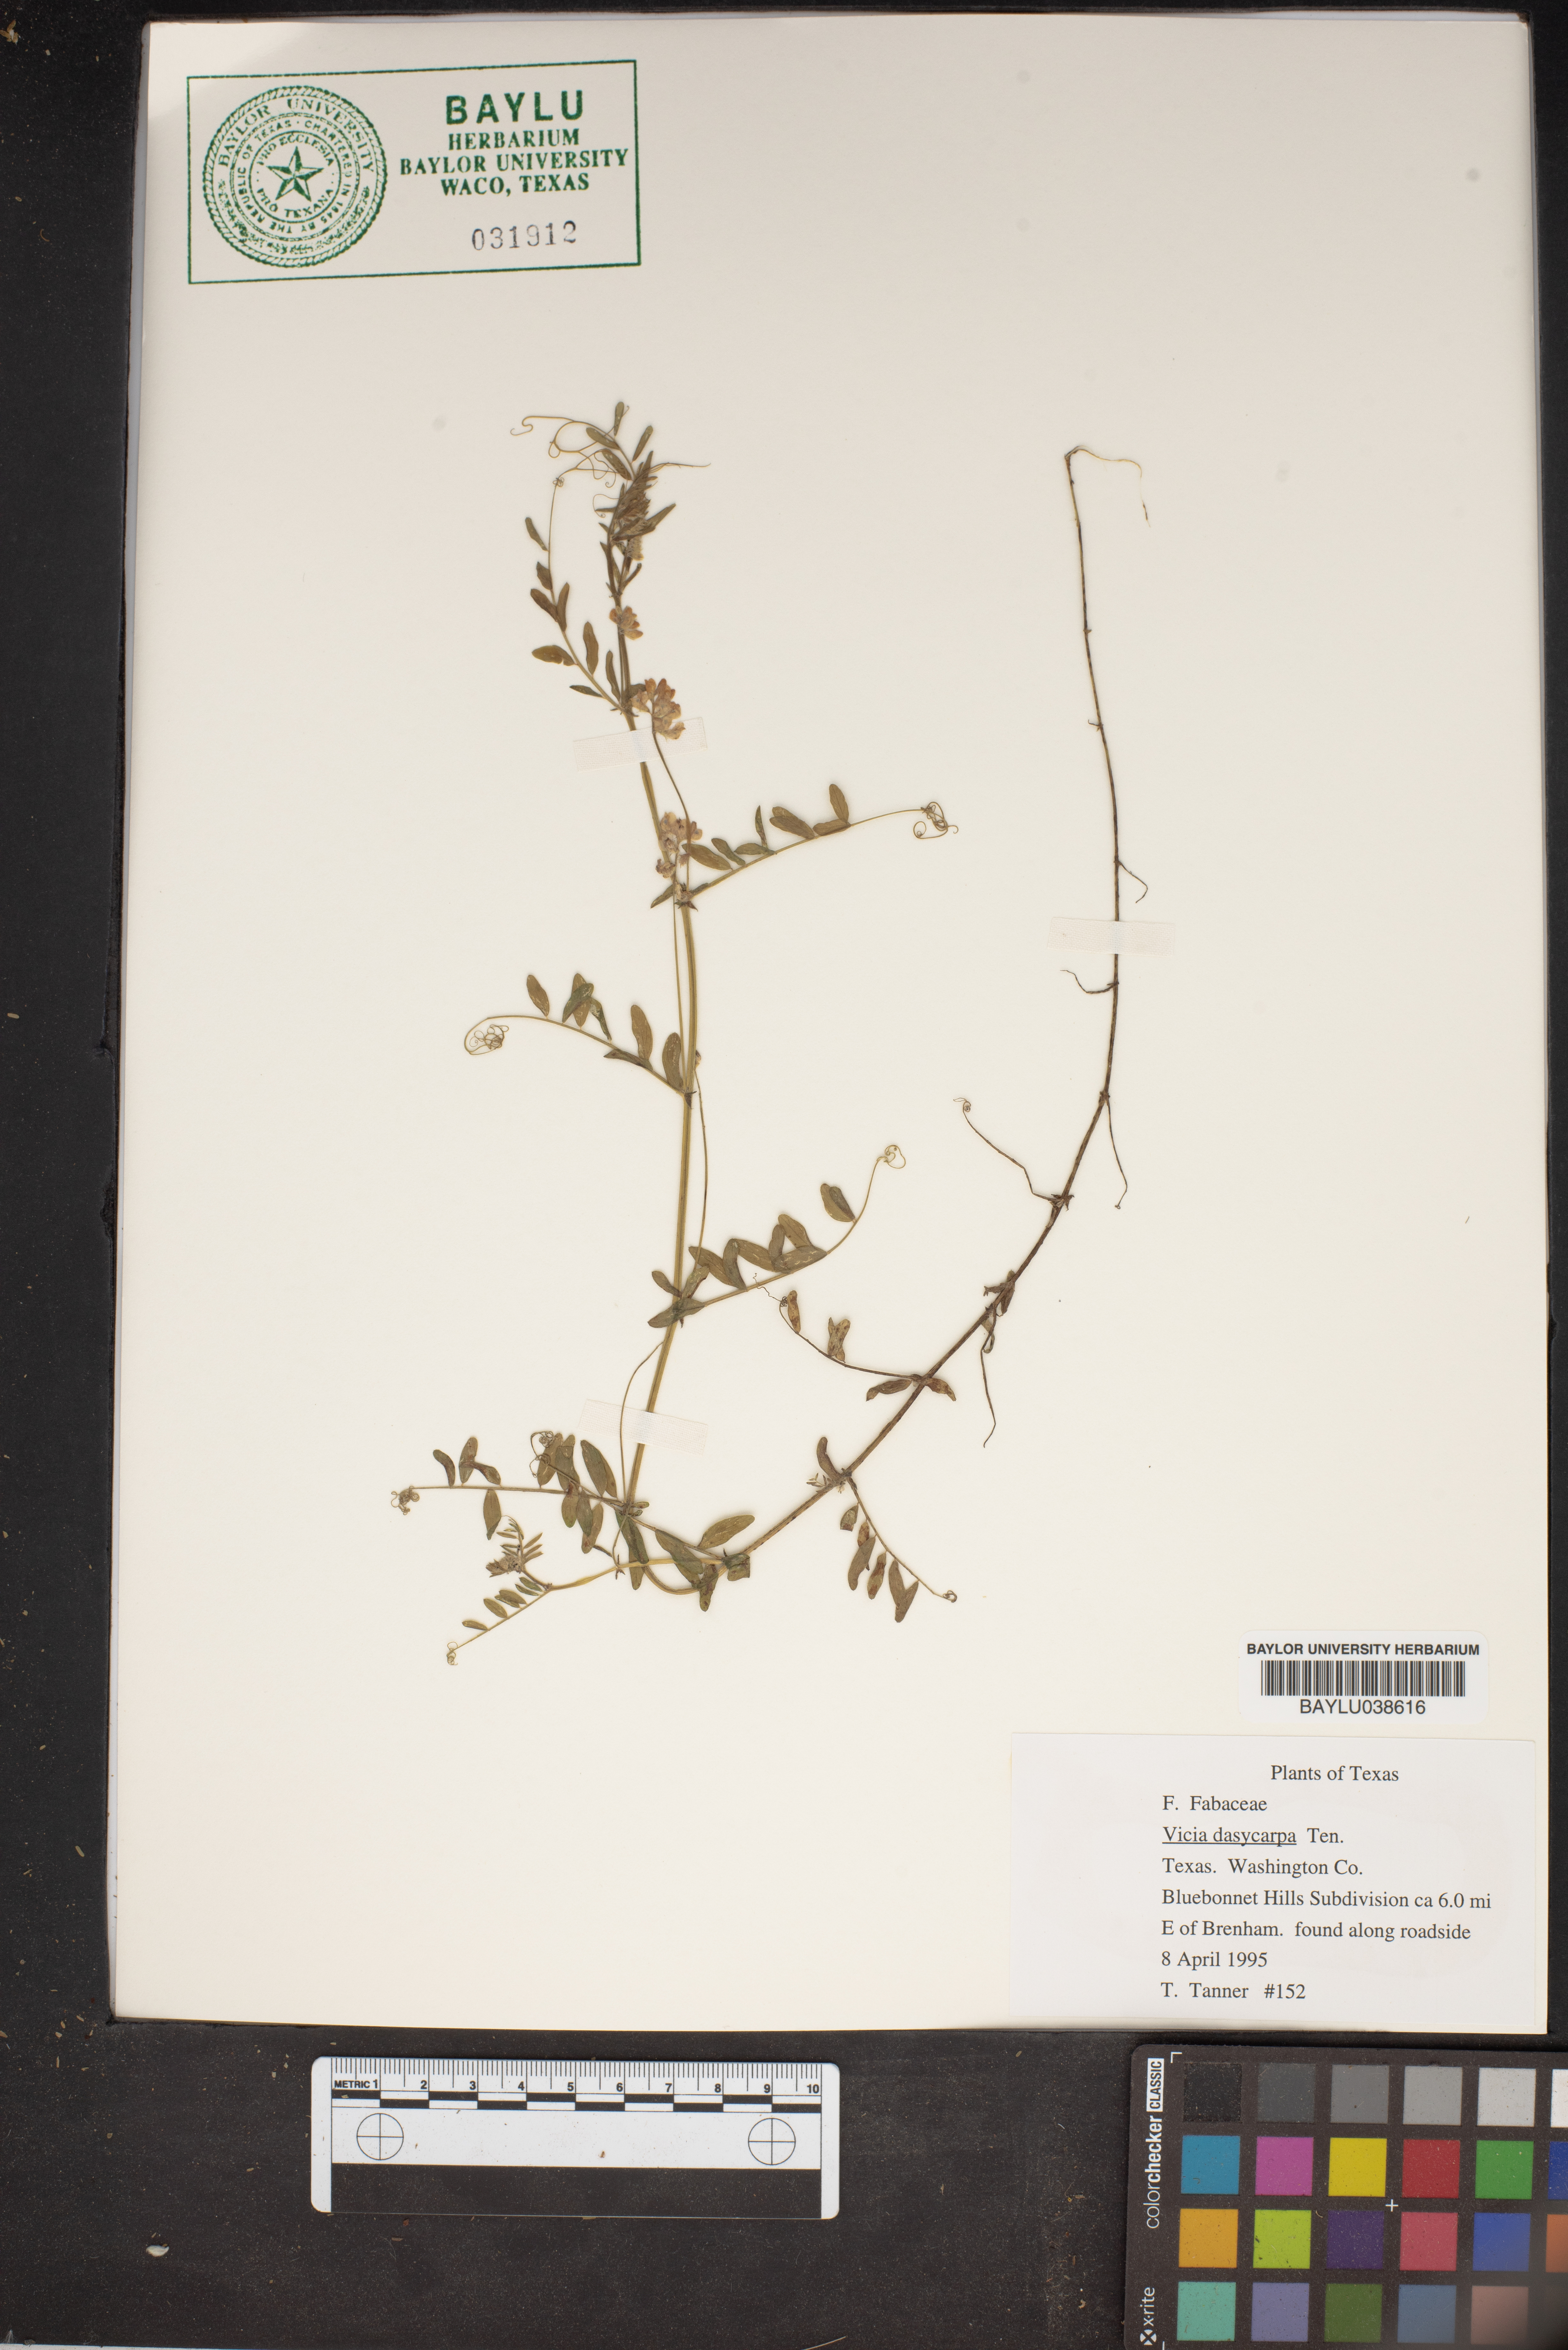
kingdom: Plantae
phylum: Tracheophyta
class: Magnoliopsida
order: Fabales
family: Fabaceae
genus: Vicia
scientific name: Vicia villosa
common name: Fodder vetch
